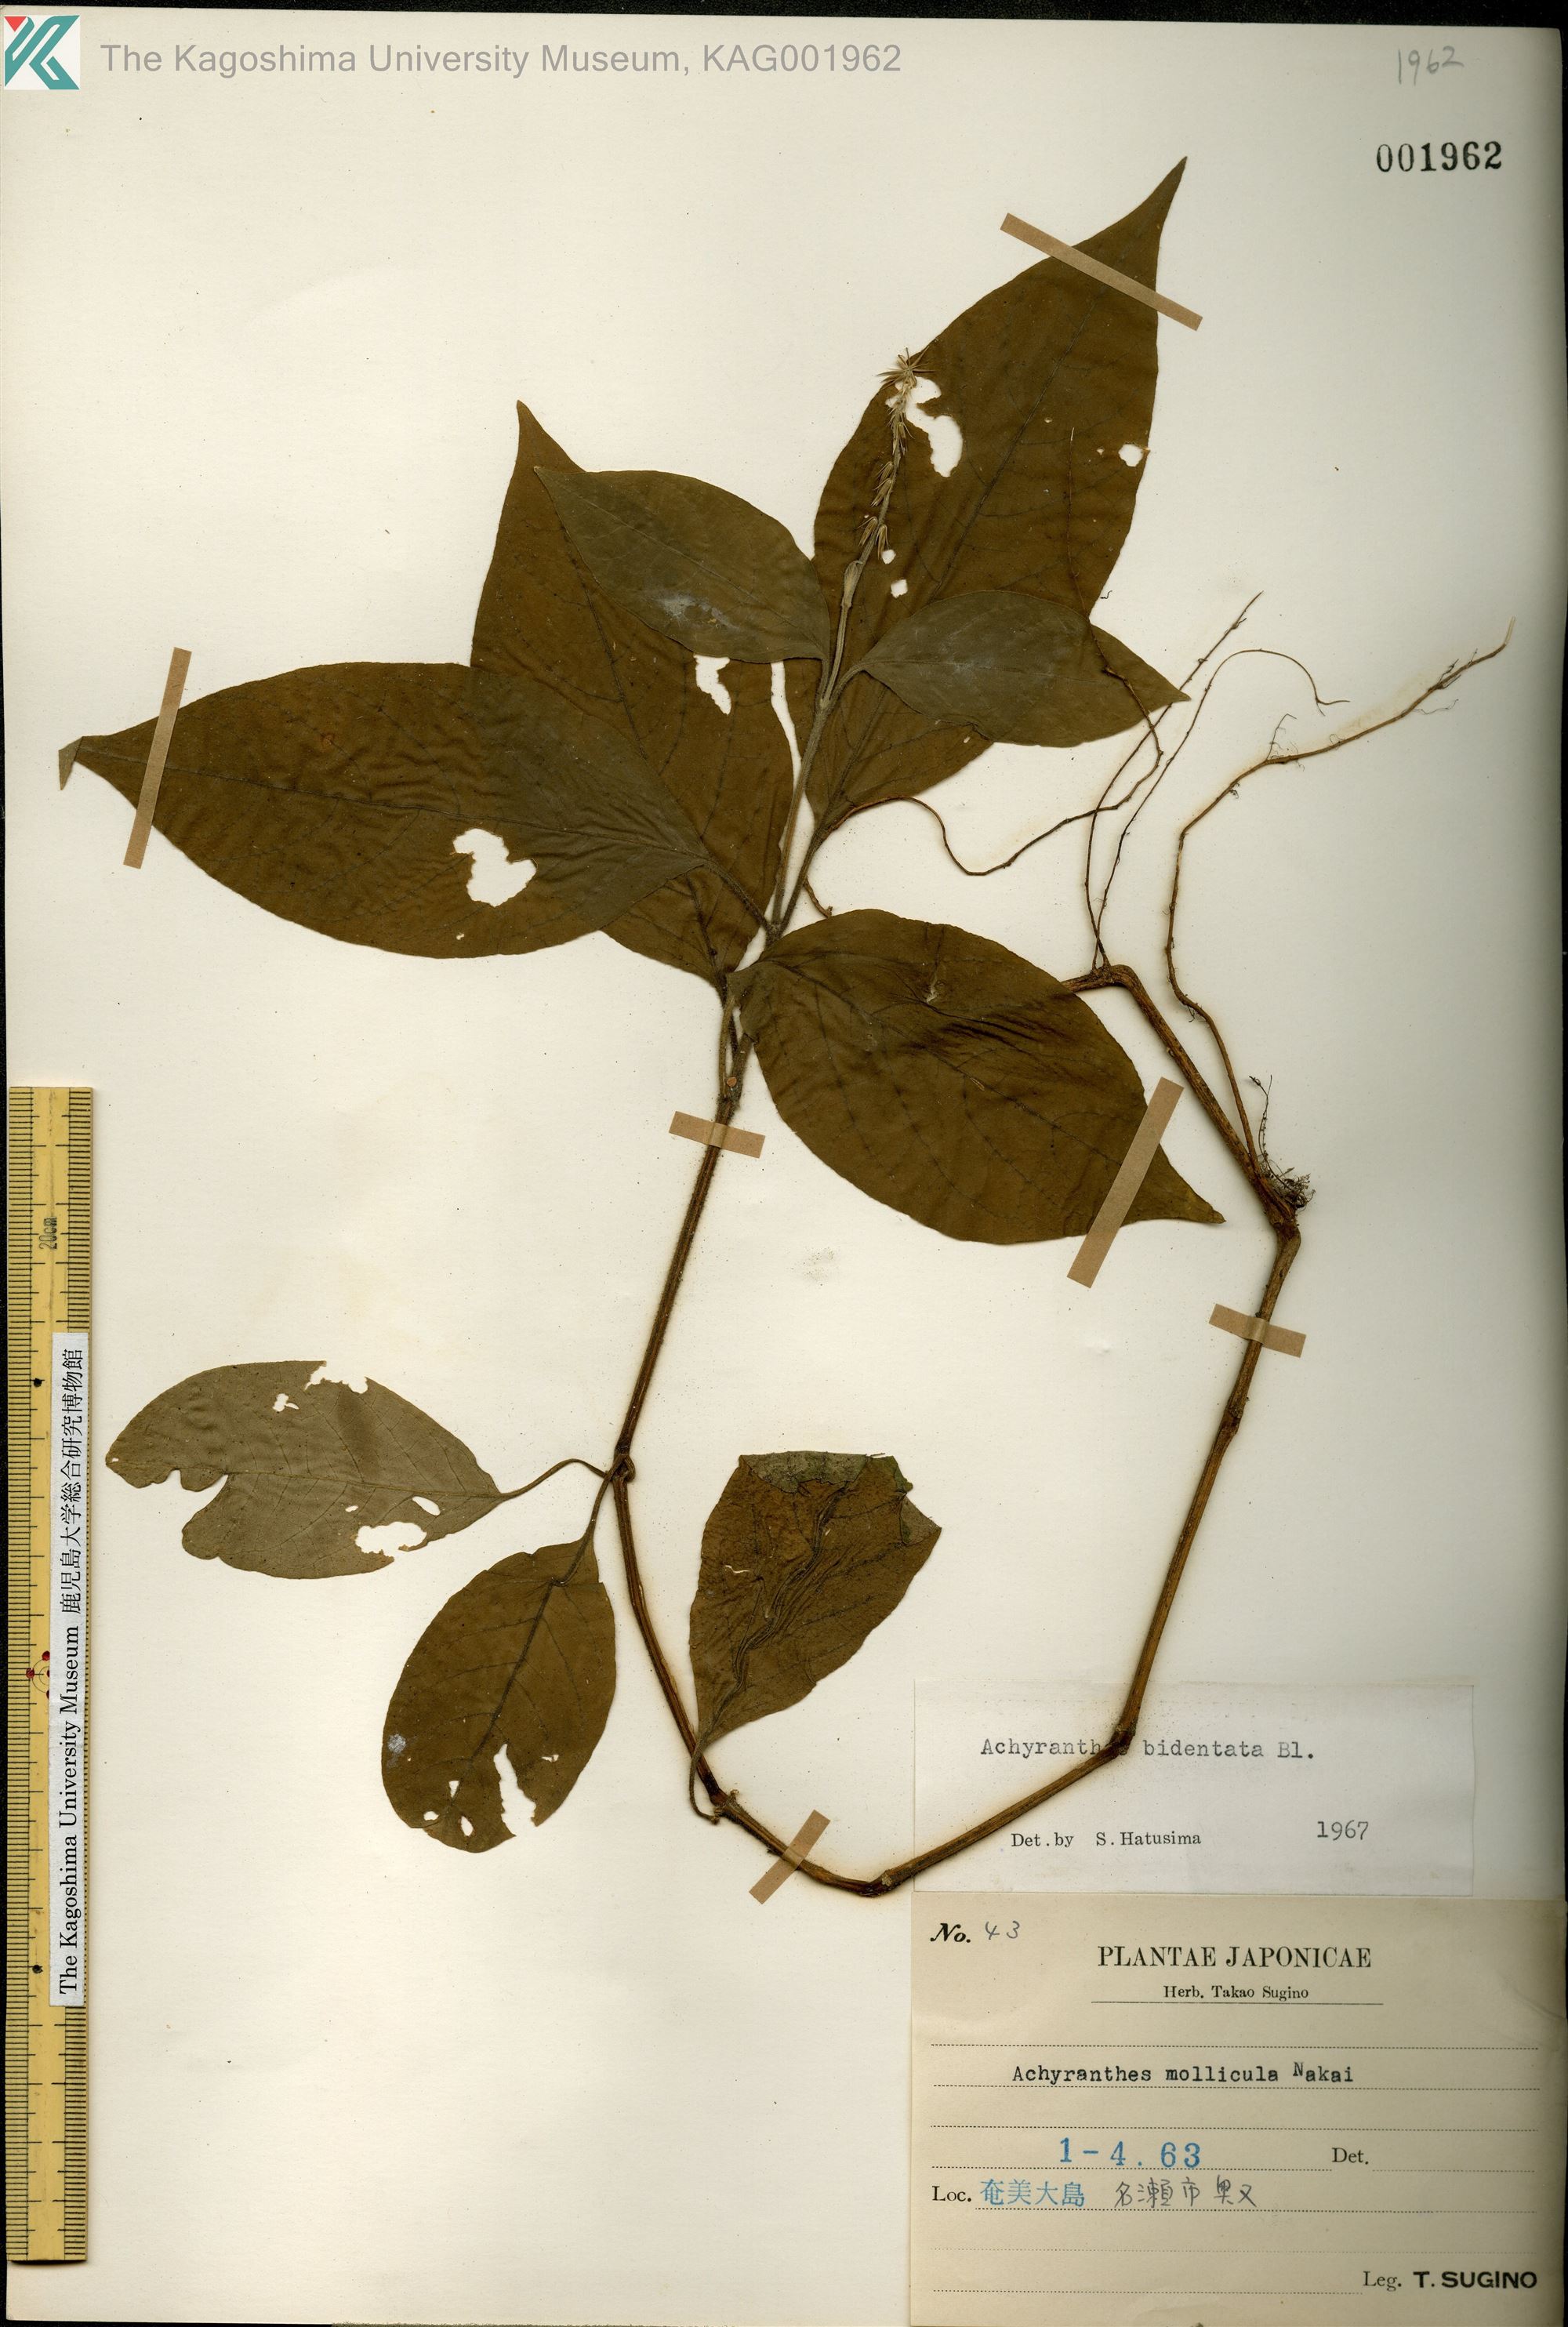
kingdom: Plantae
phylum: Tracheophyta
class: Magnoliopsida
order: Caryophyllales
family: Amaranthaceae
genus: Achyranthes
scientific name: Achyranthes bidentata
